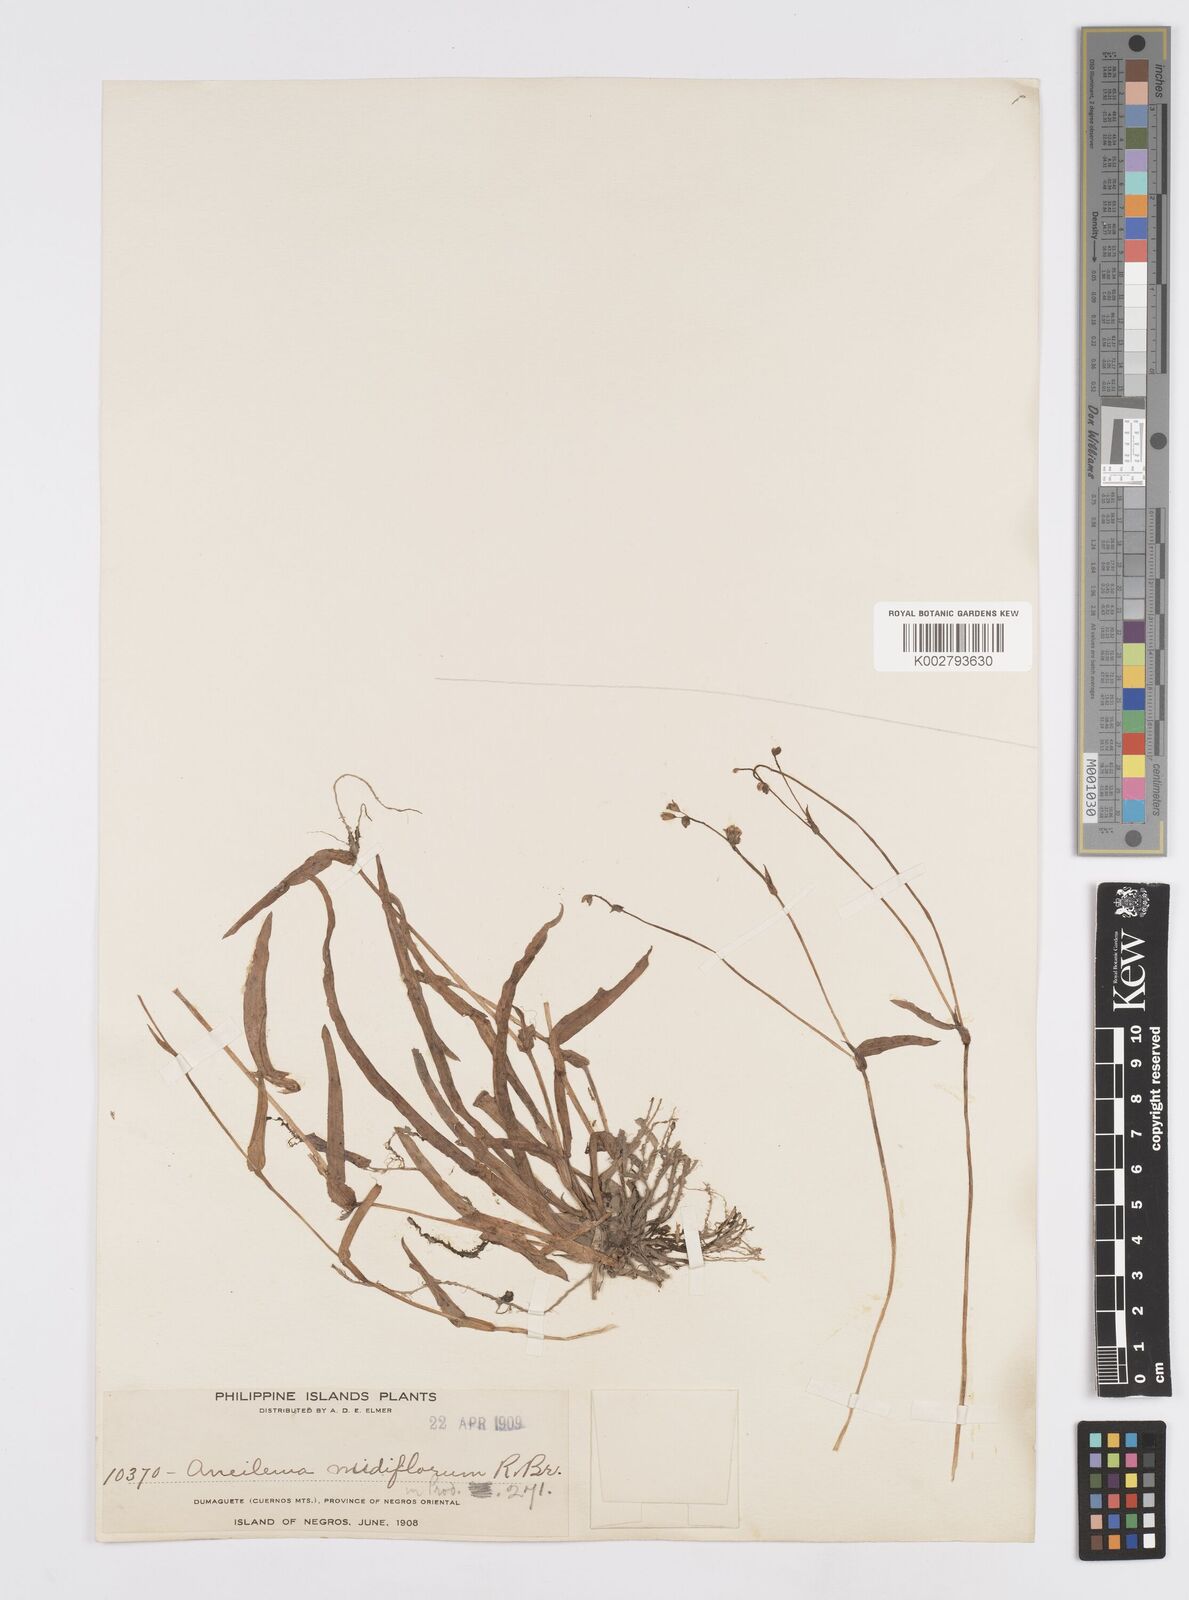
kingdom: Plantae
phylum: Tracheophyta
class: Liliopsida
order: Commelinales
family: Commelinaceae
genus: Murdannia
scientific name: Murdannia nudiflora
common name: Nakedstem dewflower
